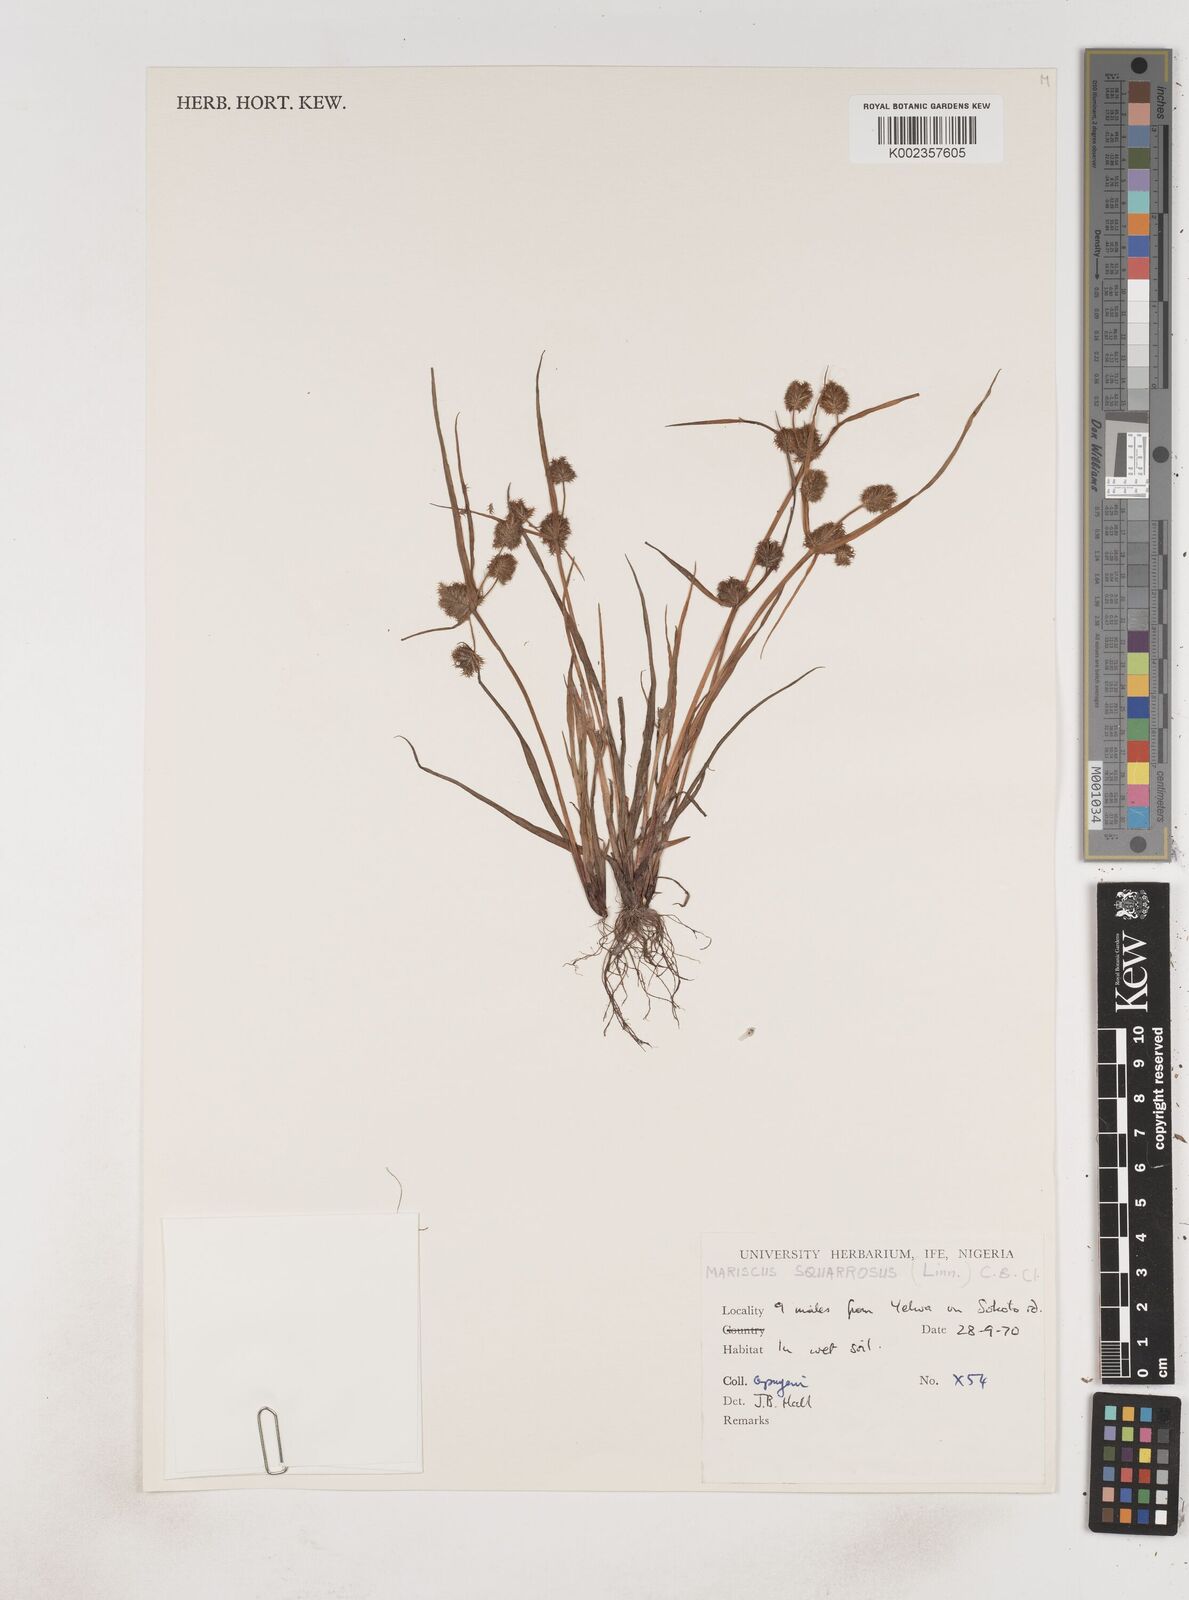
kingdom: Plantae
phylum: Tracheophyta
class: Liliopsida
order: Poales
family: Cyperaceae
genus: Cyperus
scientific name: Cyperus squarrosus
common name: Awned cyperus
